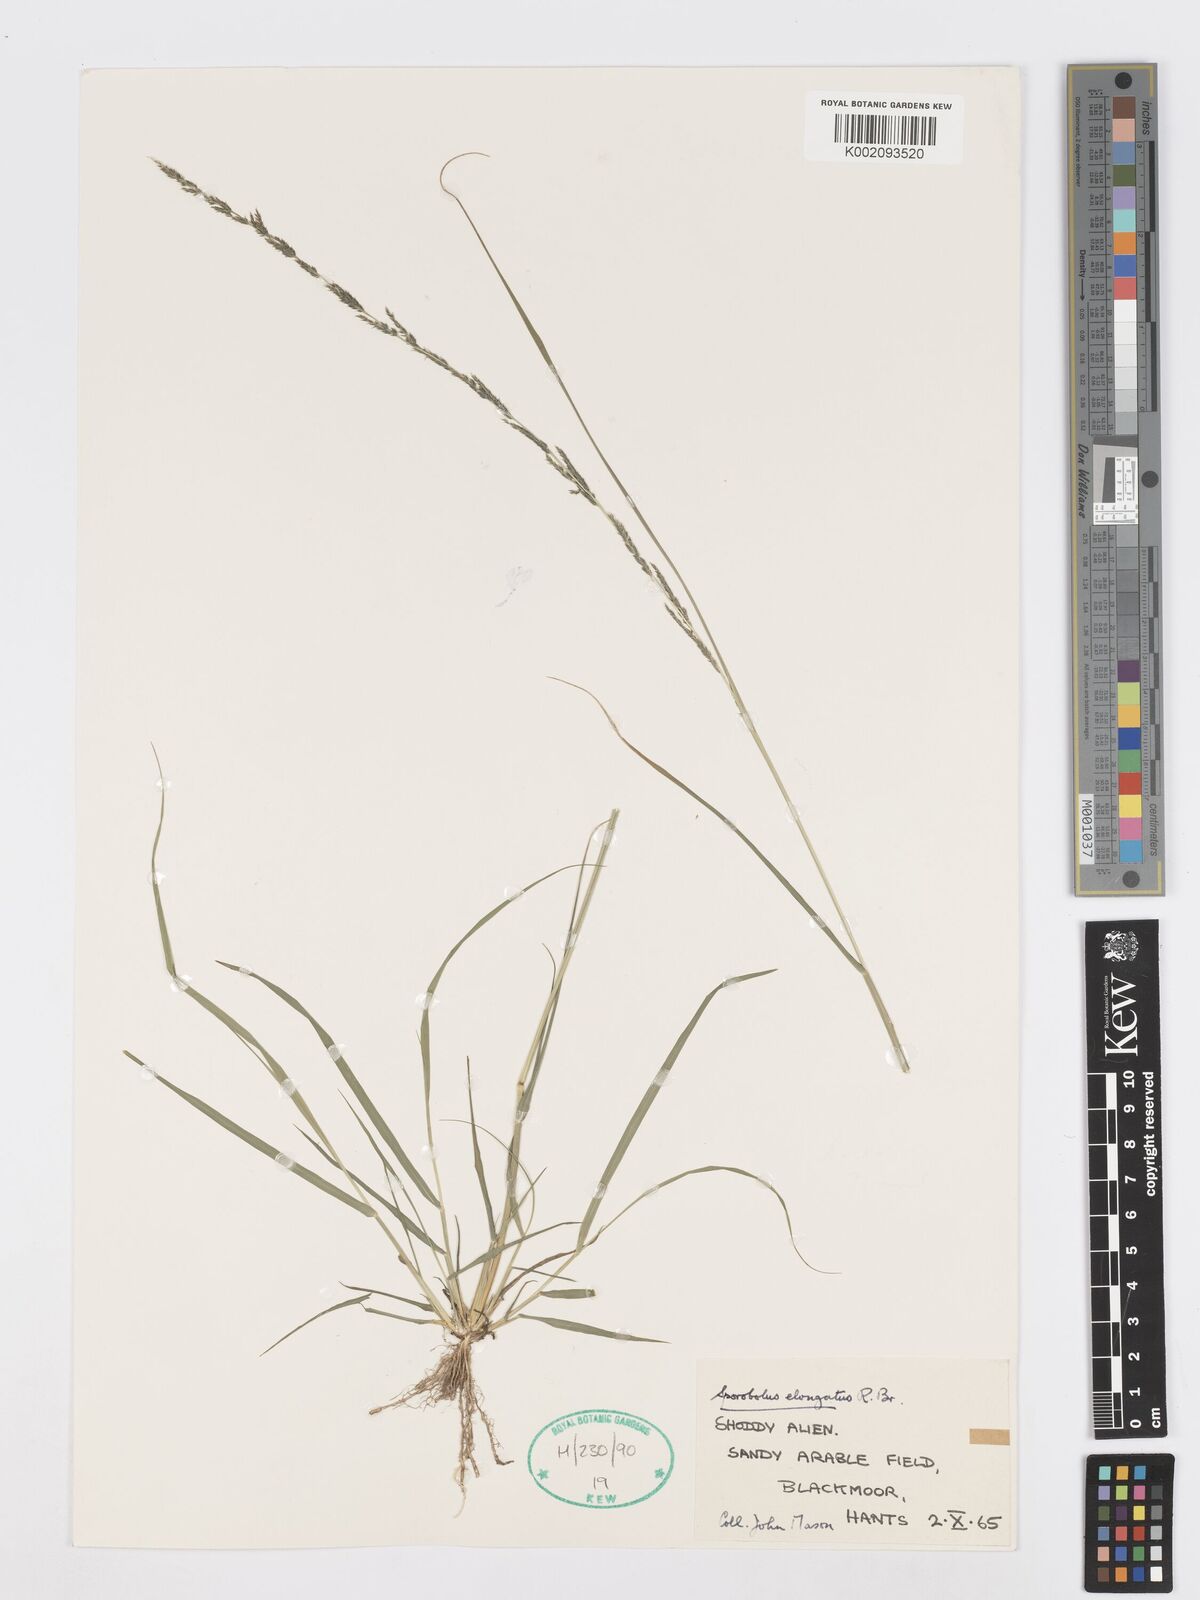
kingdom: Plantae
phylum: Tracheophyta
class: Liliopsida
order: Poales
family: Poaceae
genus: Sporobolus
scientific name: Sporobolus elongatus
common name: Rat tail grass
